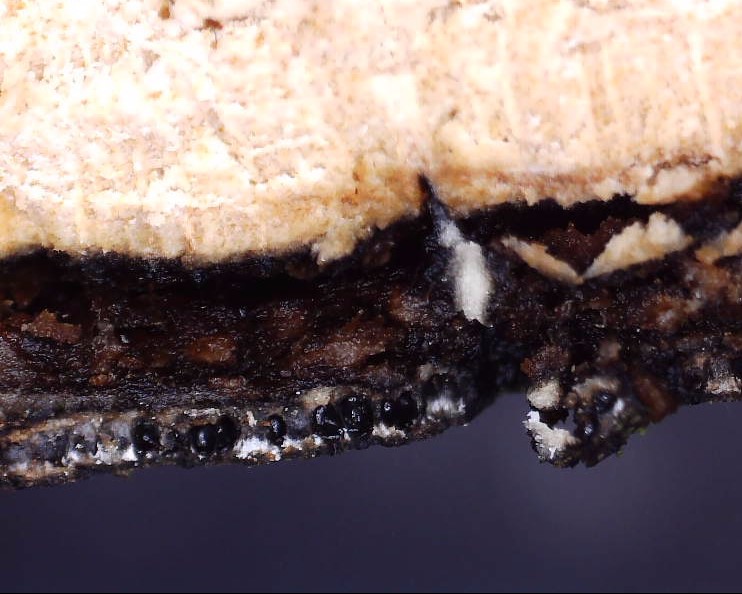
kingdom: Fungi
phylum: Ascomycota
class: Sordariomycetes
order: Xylariales
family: Diatrypaceae
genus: Diatrype
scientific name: Diatrype decorticata
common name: barksprænger-kulskorpe
